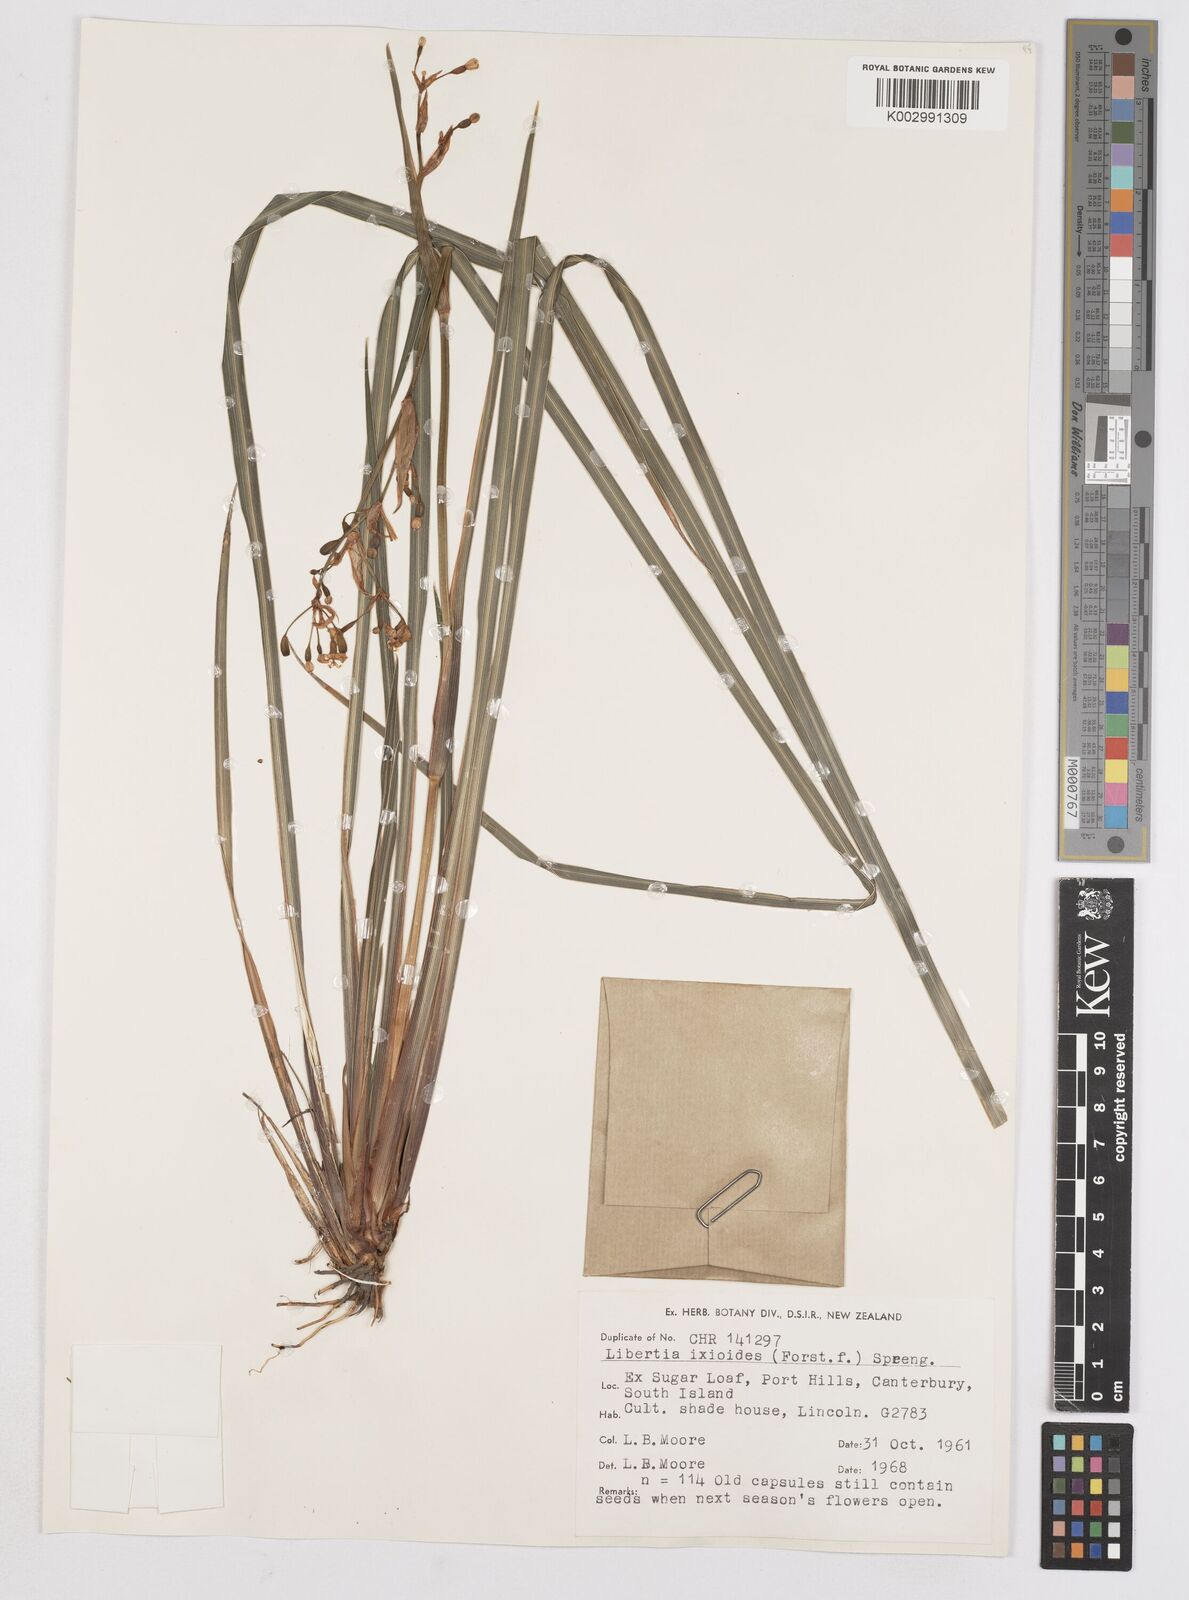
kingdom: Plantae
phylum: Tracheophyta
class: Liliopsida
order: Asparagales
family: Iridaceae
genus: Libertia
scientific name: Libertia ixioides
